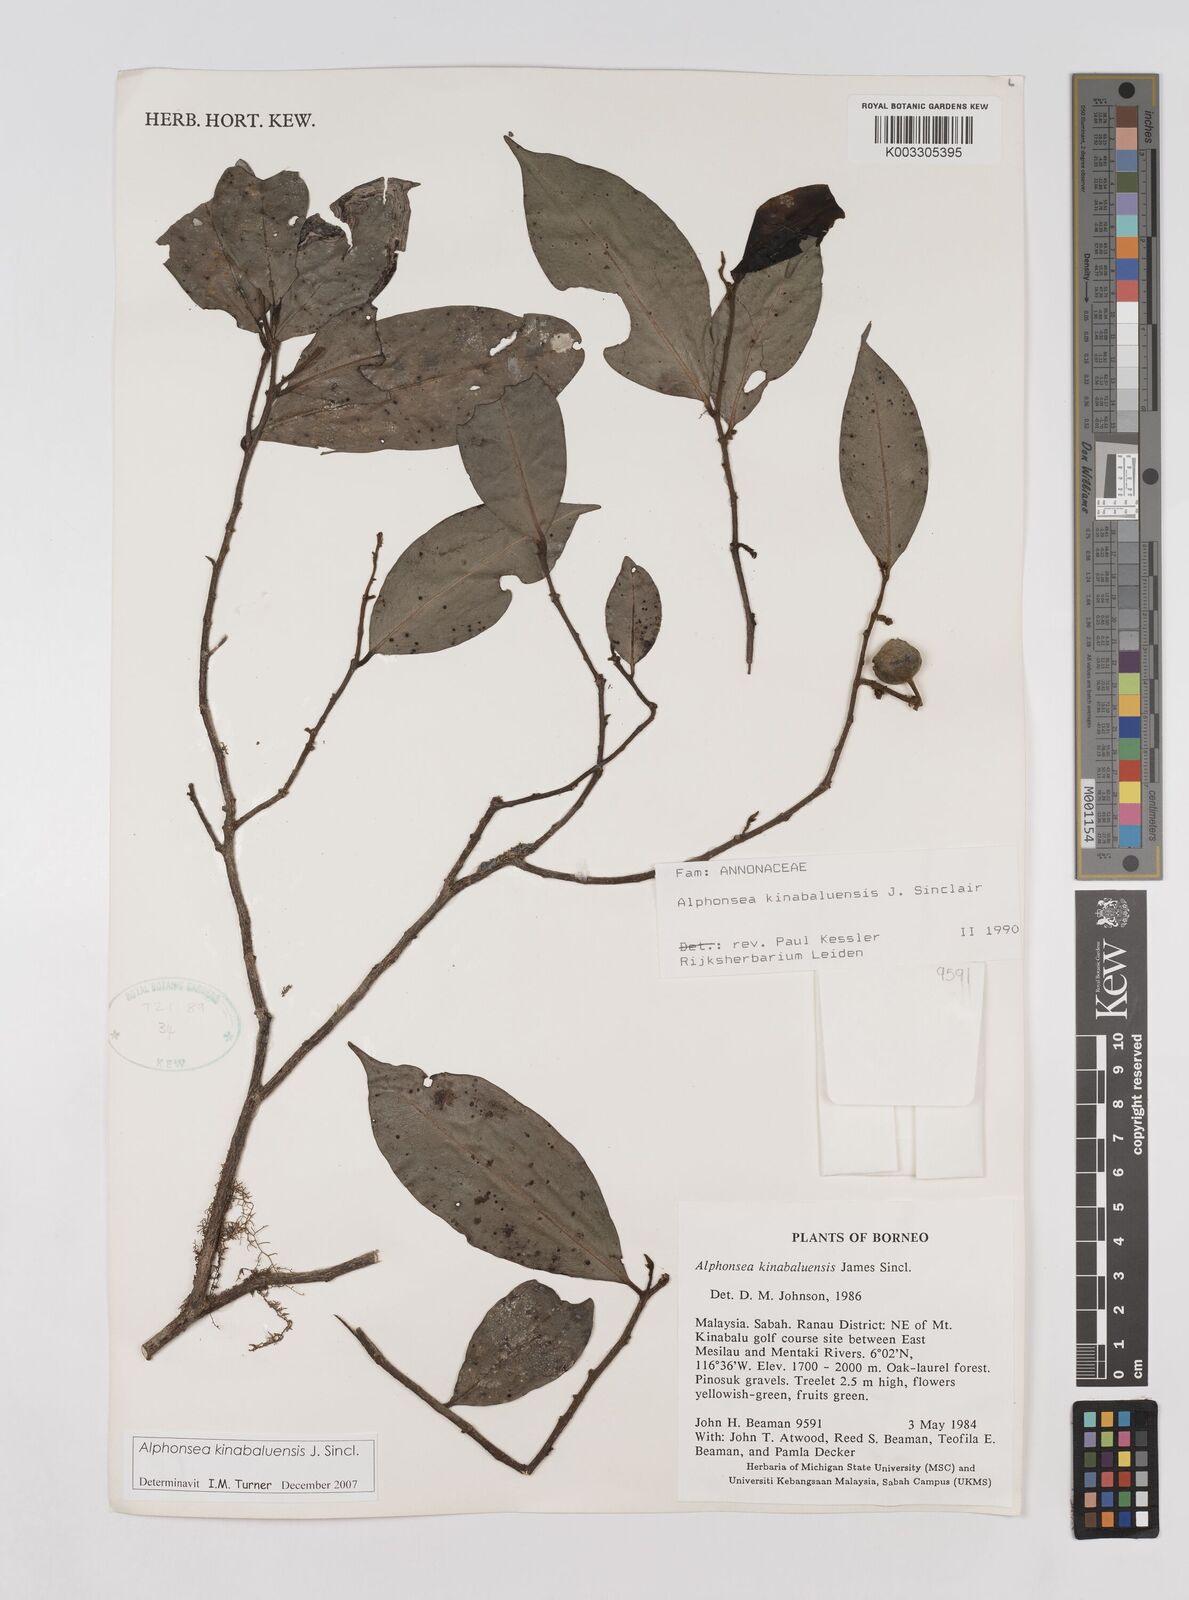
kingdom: Plantae
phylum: Tracheophyta
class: Magnoliopsida
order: Magnoliales
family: Annonaceae
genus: Alphonsea
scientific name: Alphonsea kinabaluensis
